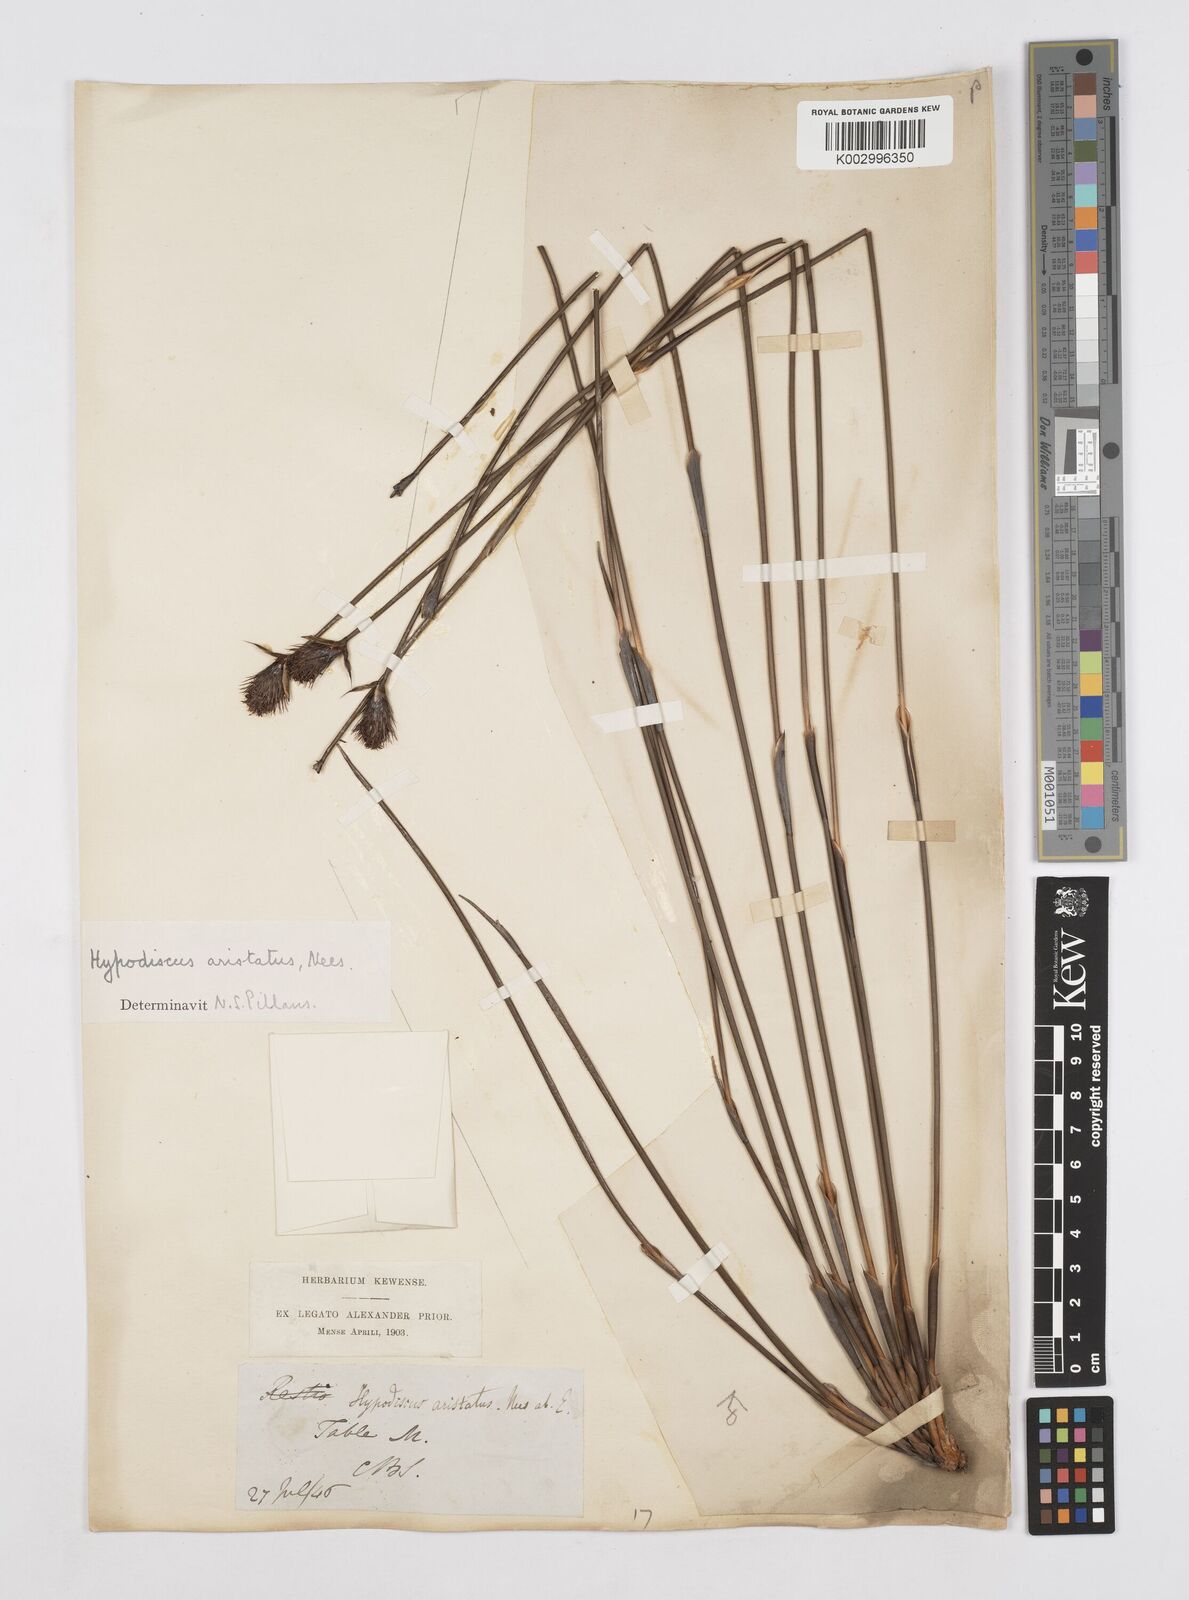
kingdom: Plantae
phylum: Tracheophyta
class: Liliopsida
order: Poales
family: Restionaceae
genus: Hypodiscus
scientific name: Hypodiscus aristatus
